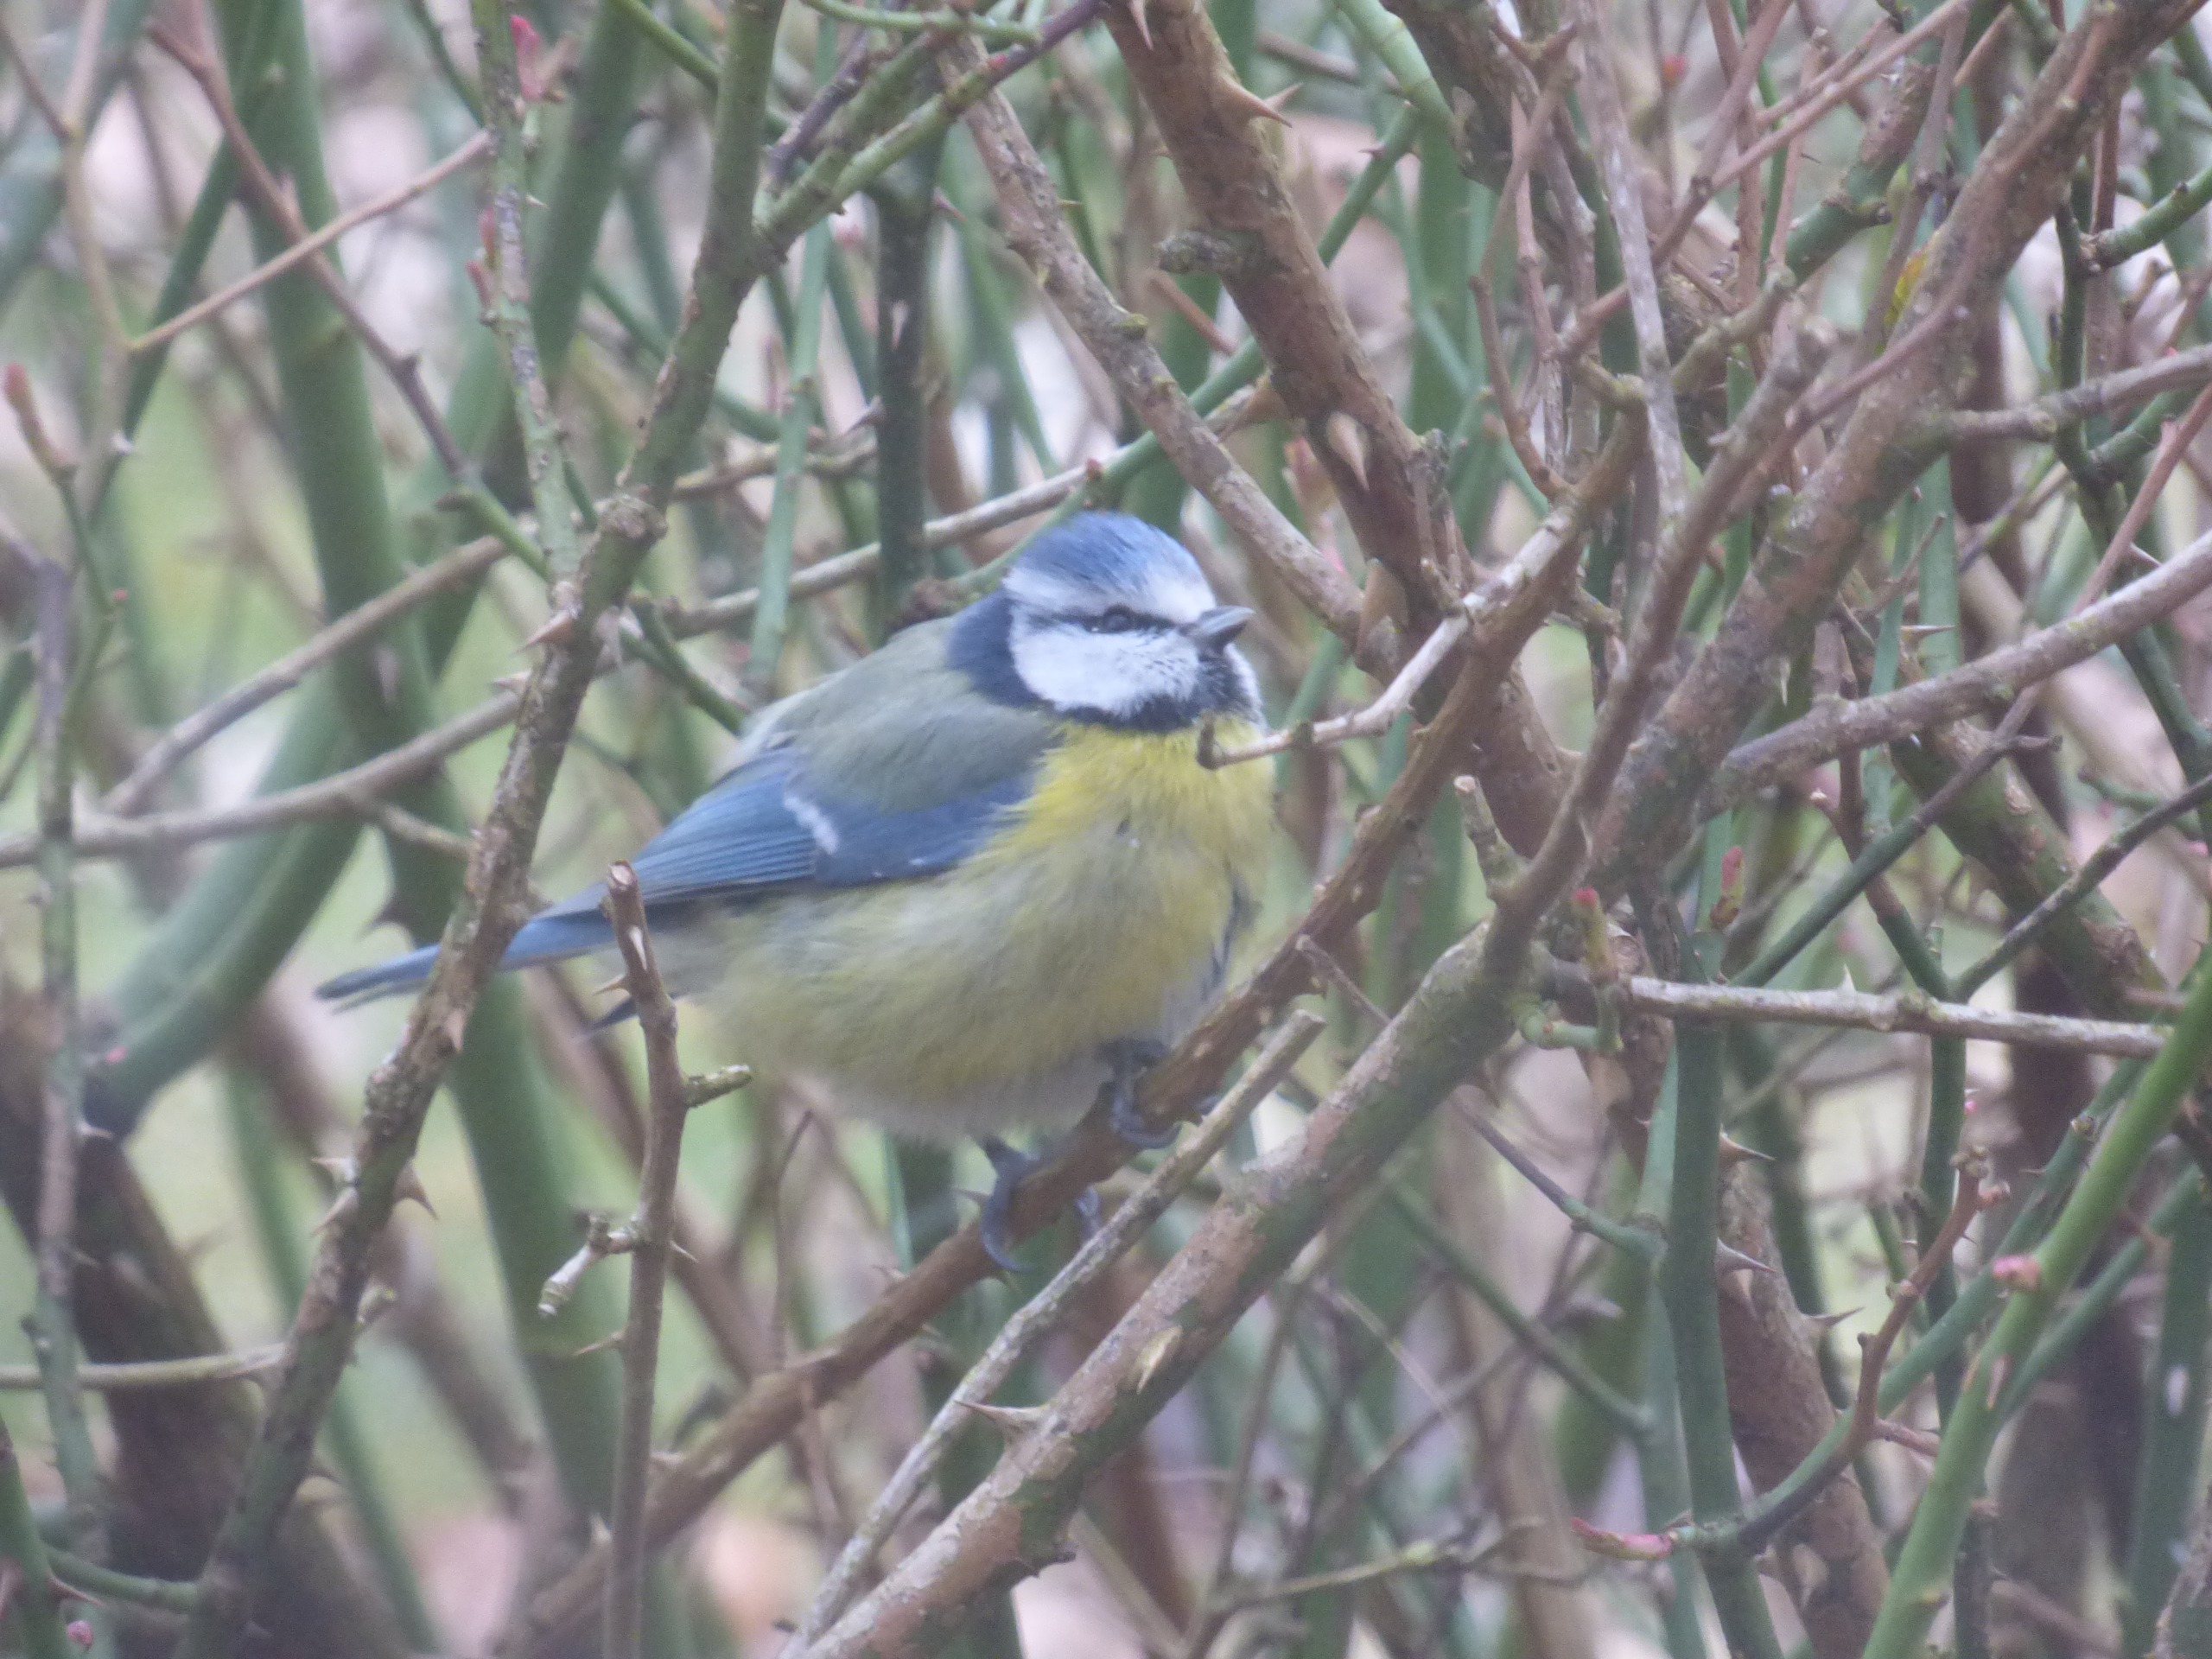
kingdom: Animalia
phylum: Chordata
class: Aves
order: Passeriformes
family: Paridae
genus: Cyanistes
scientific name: Cyanistes caeruleus
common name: Blåmejse
